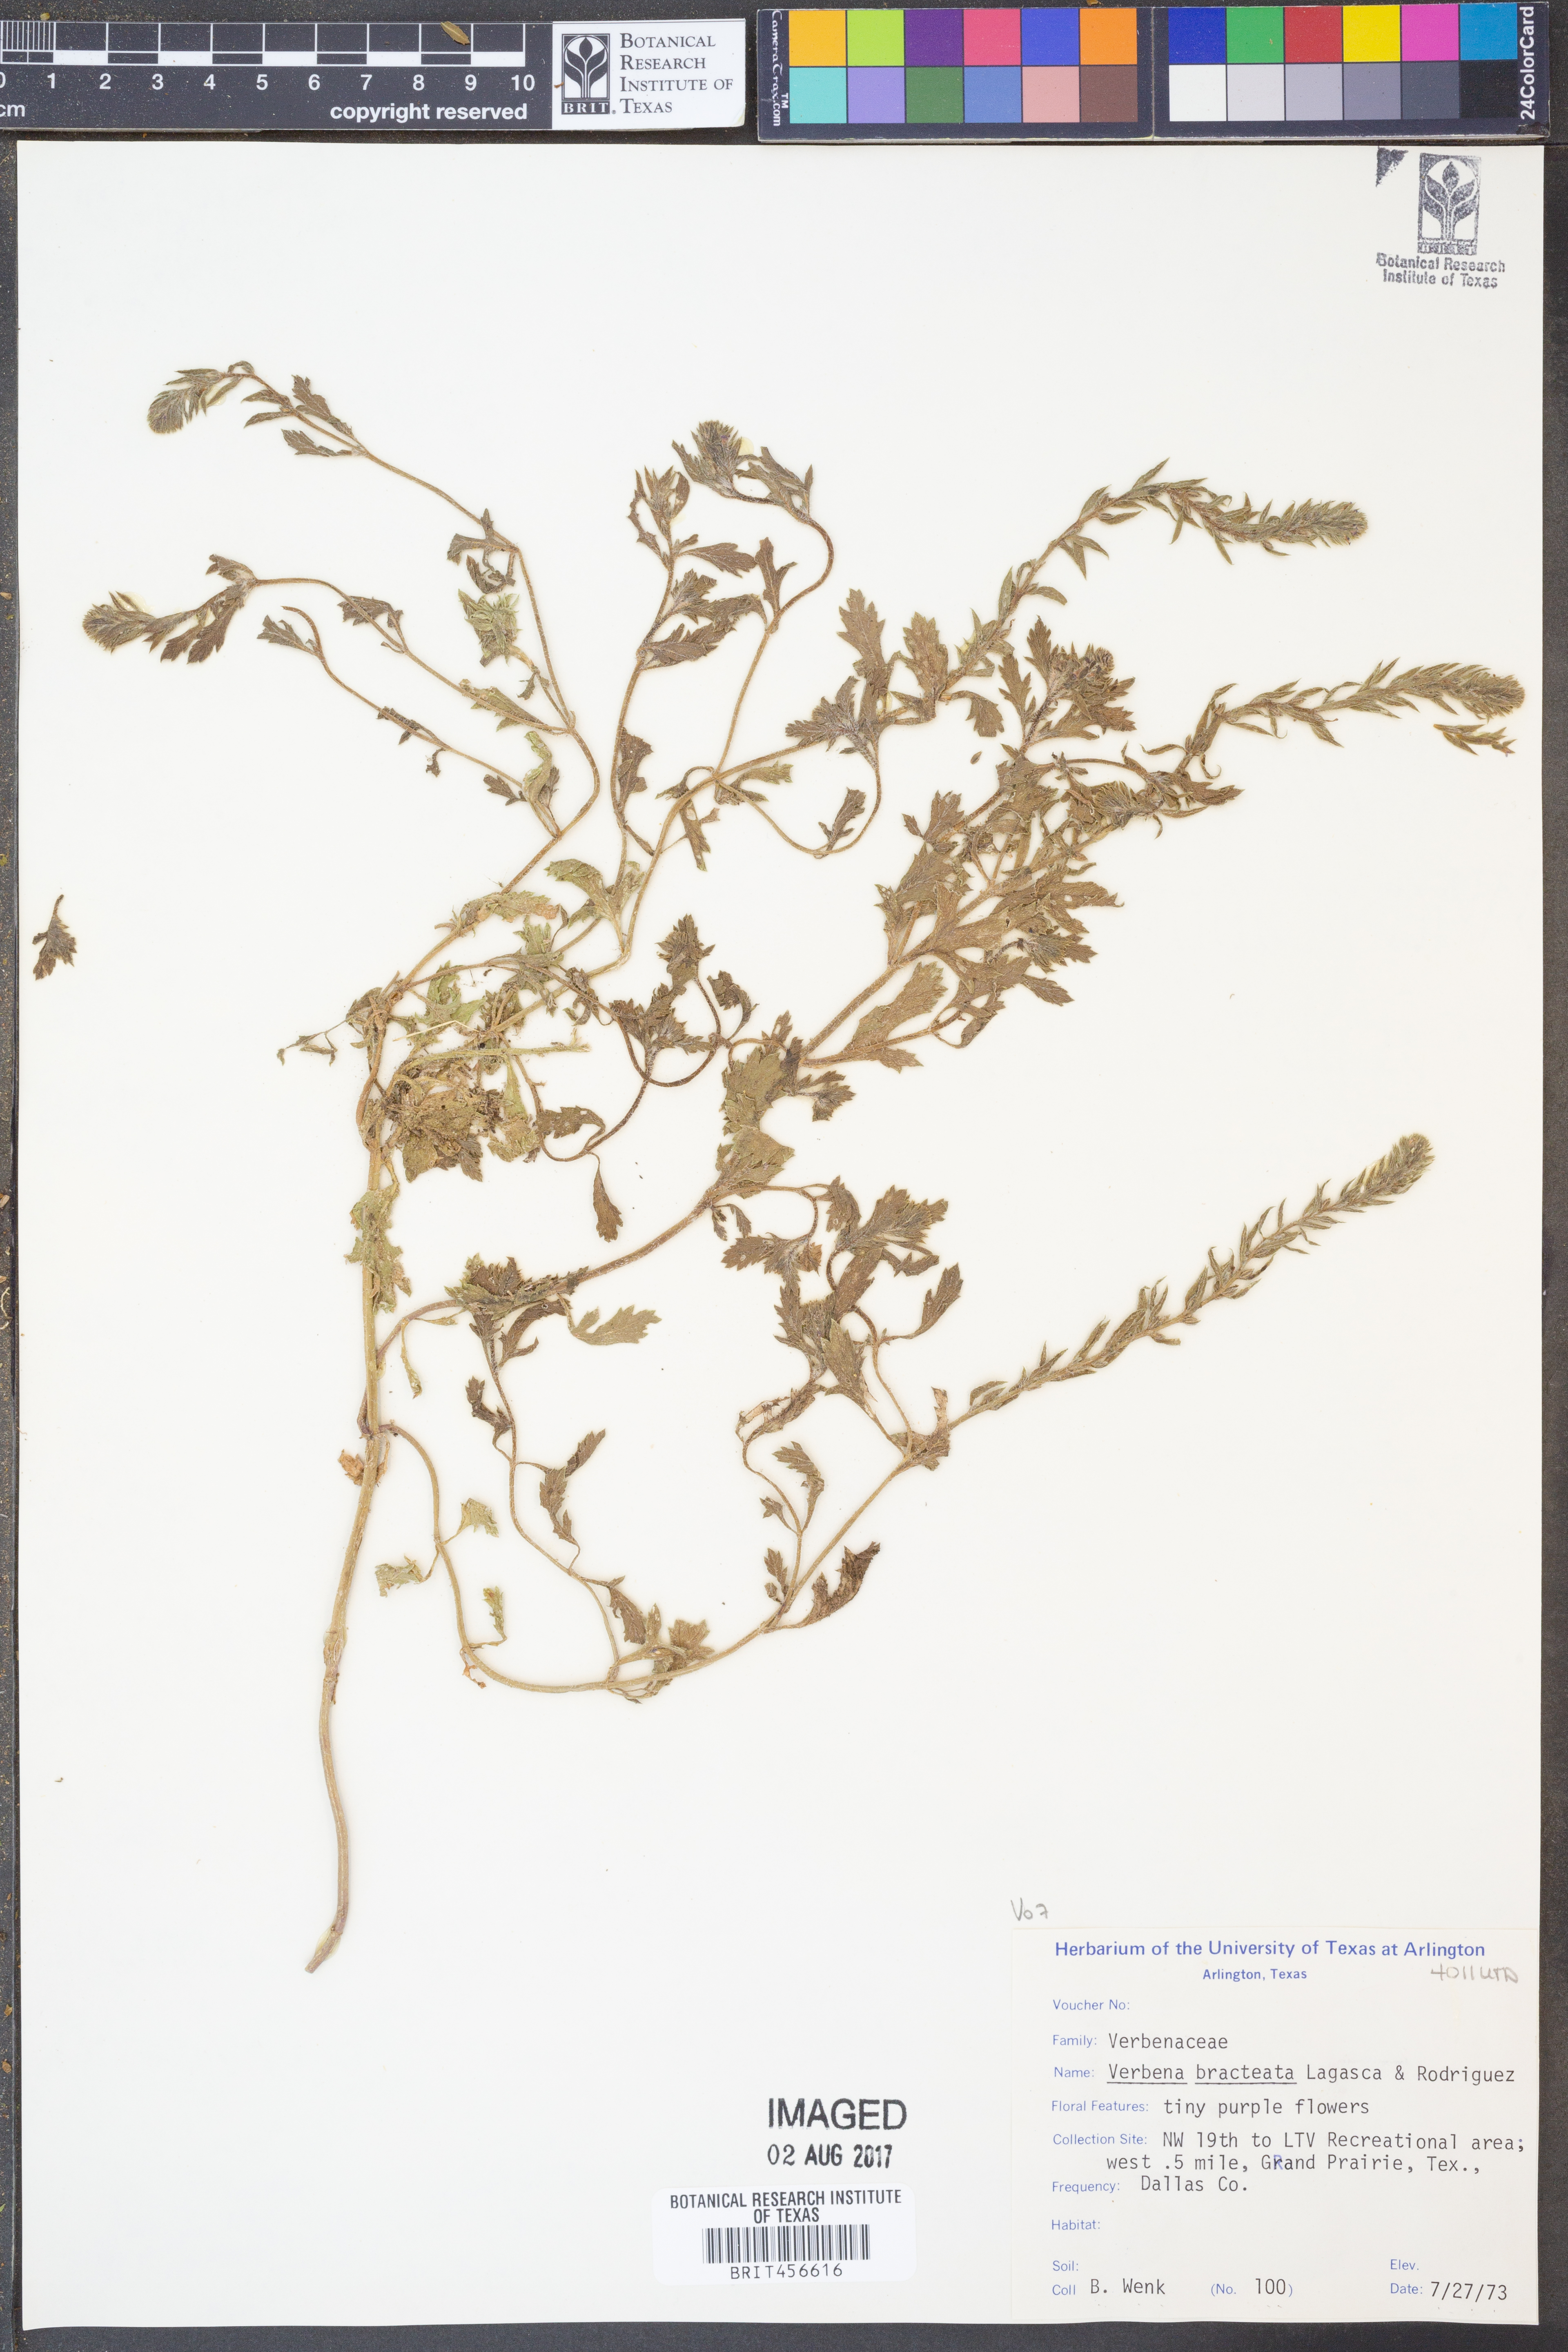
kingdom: Plantae
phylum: Tracheophyta
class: Magnoliopsida
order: Lamiales
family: Verbenaceae
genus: Verbena
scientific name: Verbena bracteata
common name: Bracted vervain
